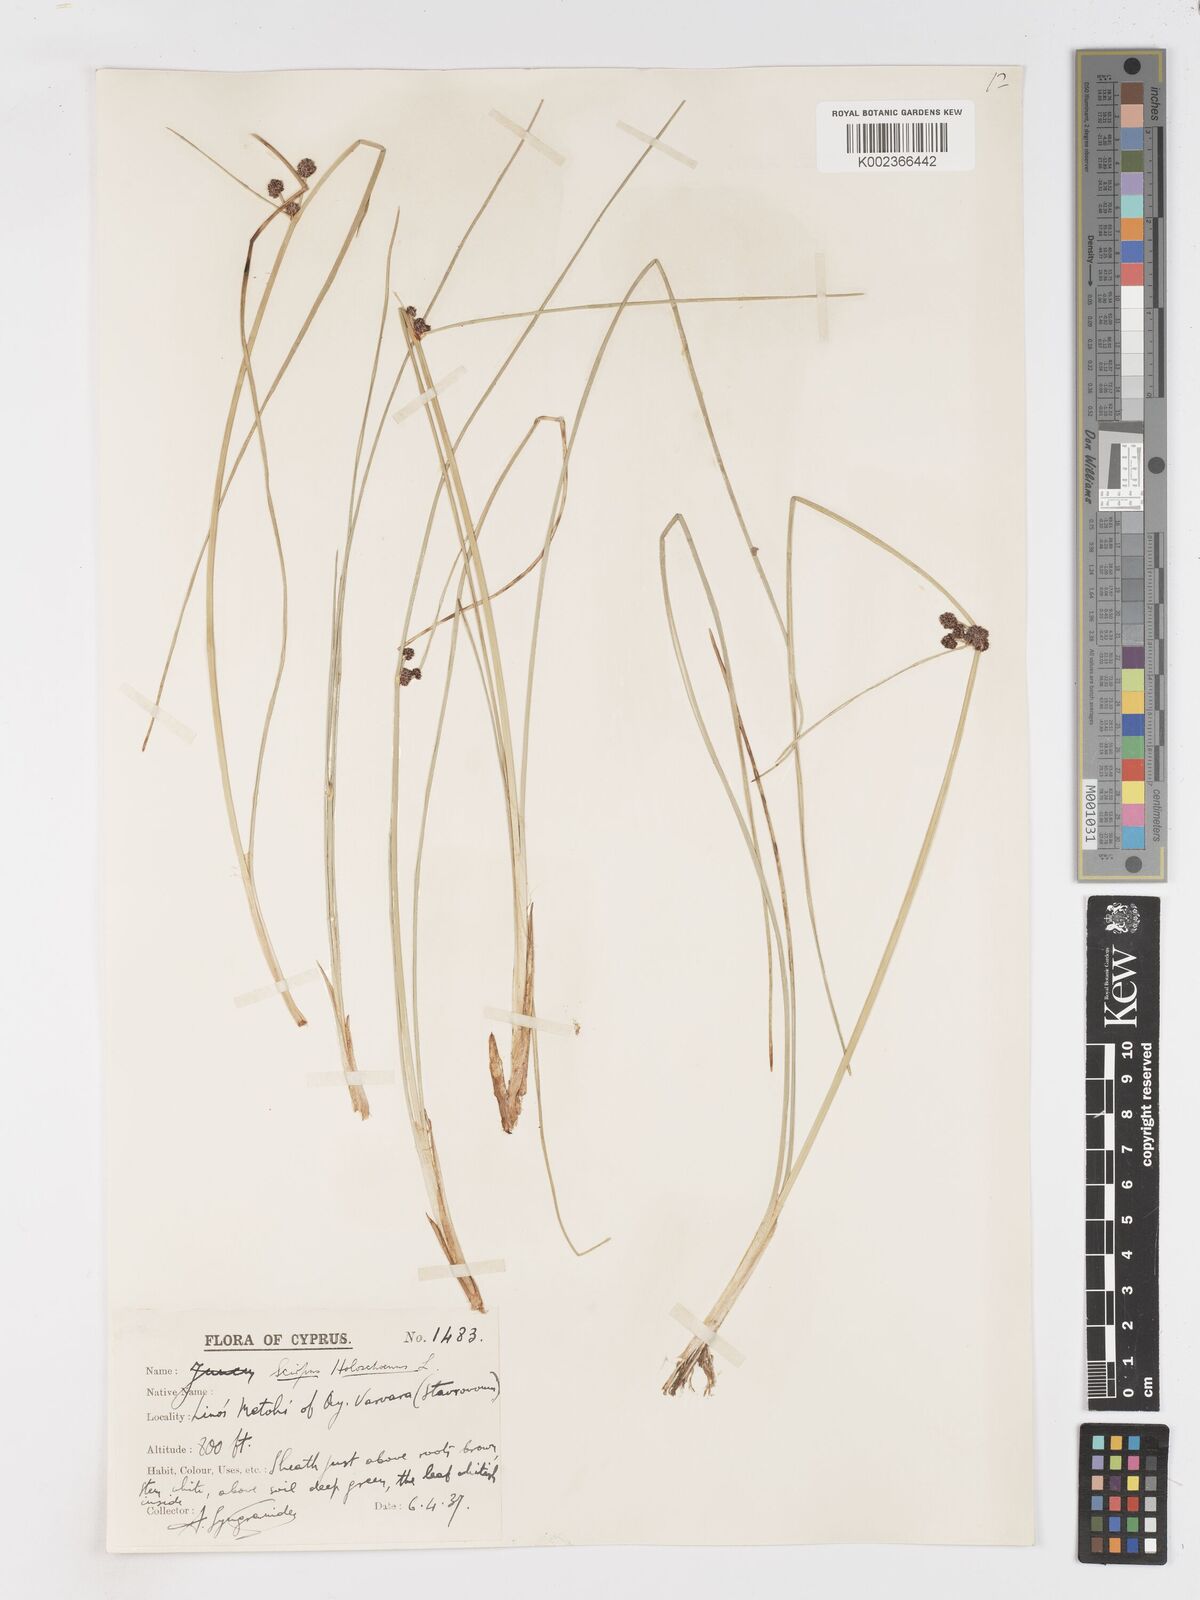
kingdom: Plantae
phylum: Tracheophyta
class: Liliopsida
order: Poales
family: Cyperaceae
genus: Scirpoides
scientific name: Scirpoides holoschoenus
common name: Round-headed club-rush
